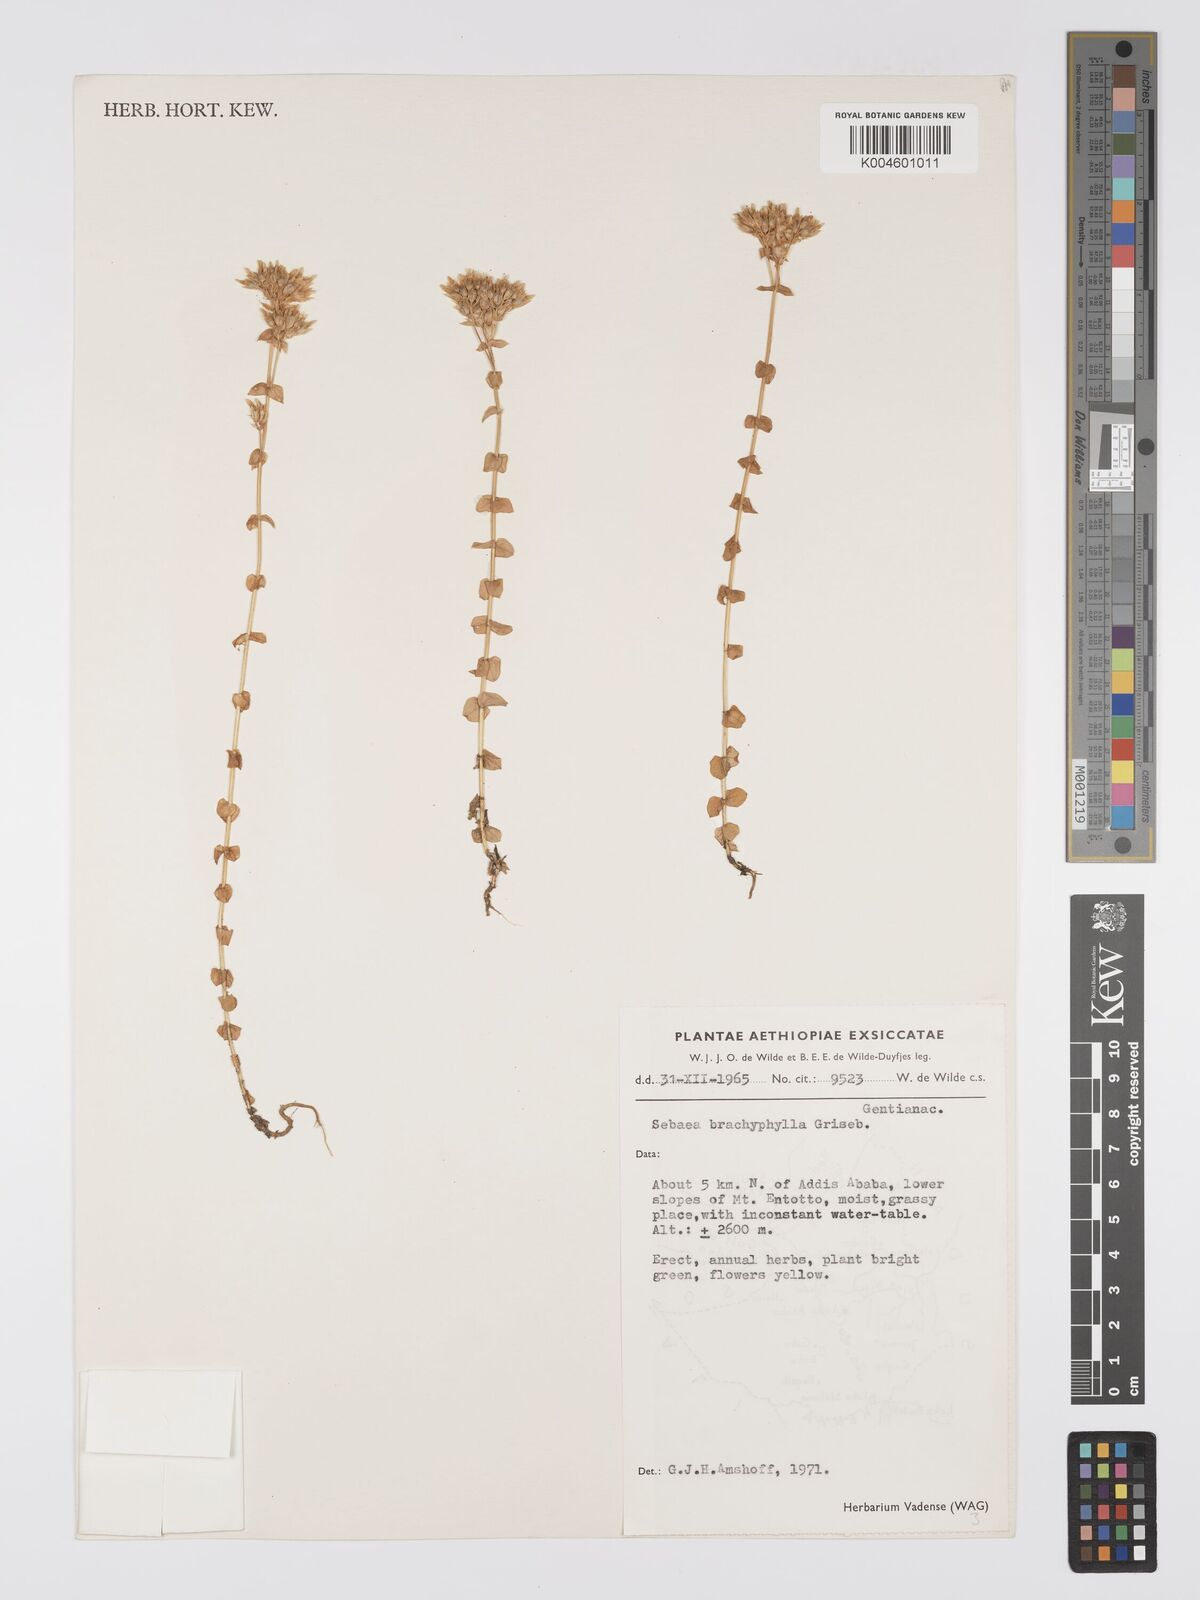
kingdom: Plantae
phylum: Tracheophyta
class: Magnoliopsida
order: Gentianales
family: Gentianaceae
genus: Sebaea
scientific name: Sebaea brachyphylla
